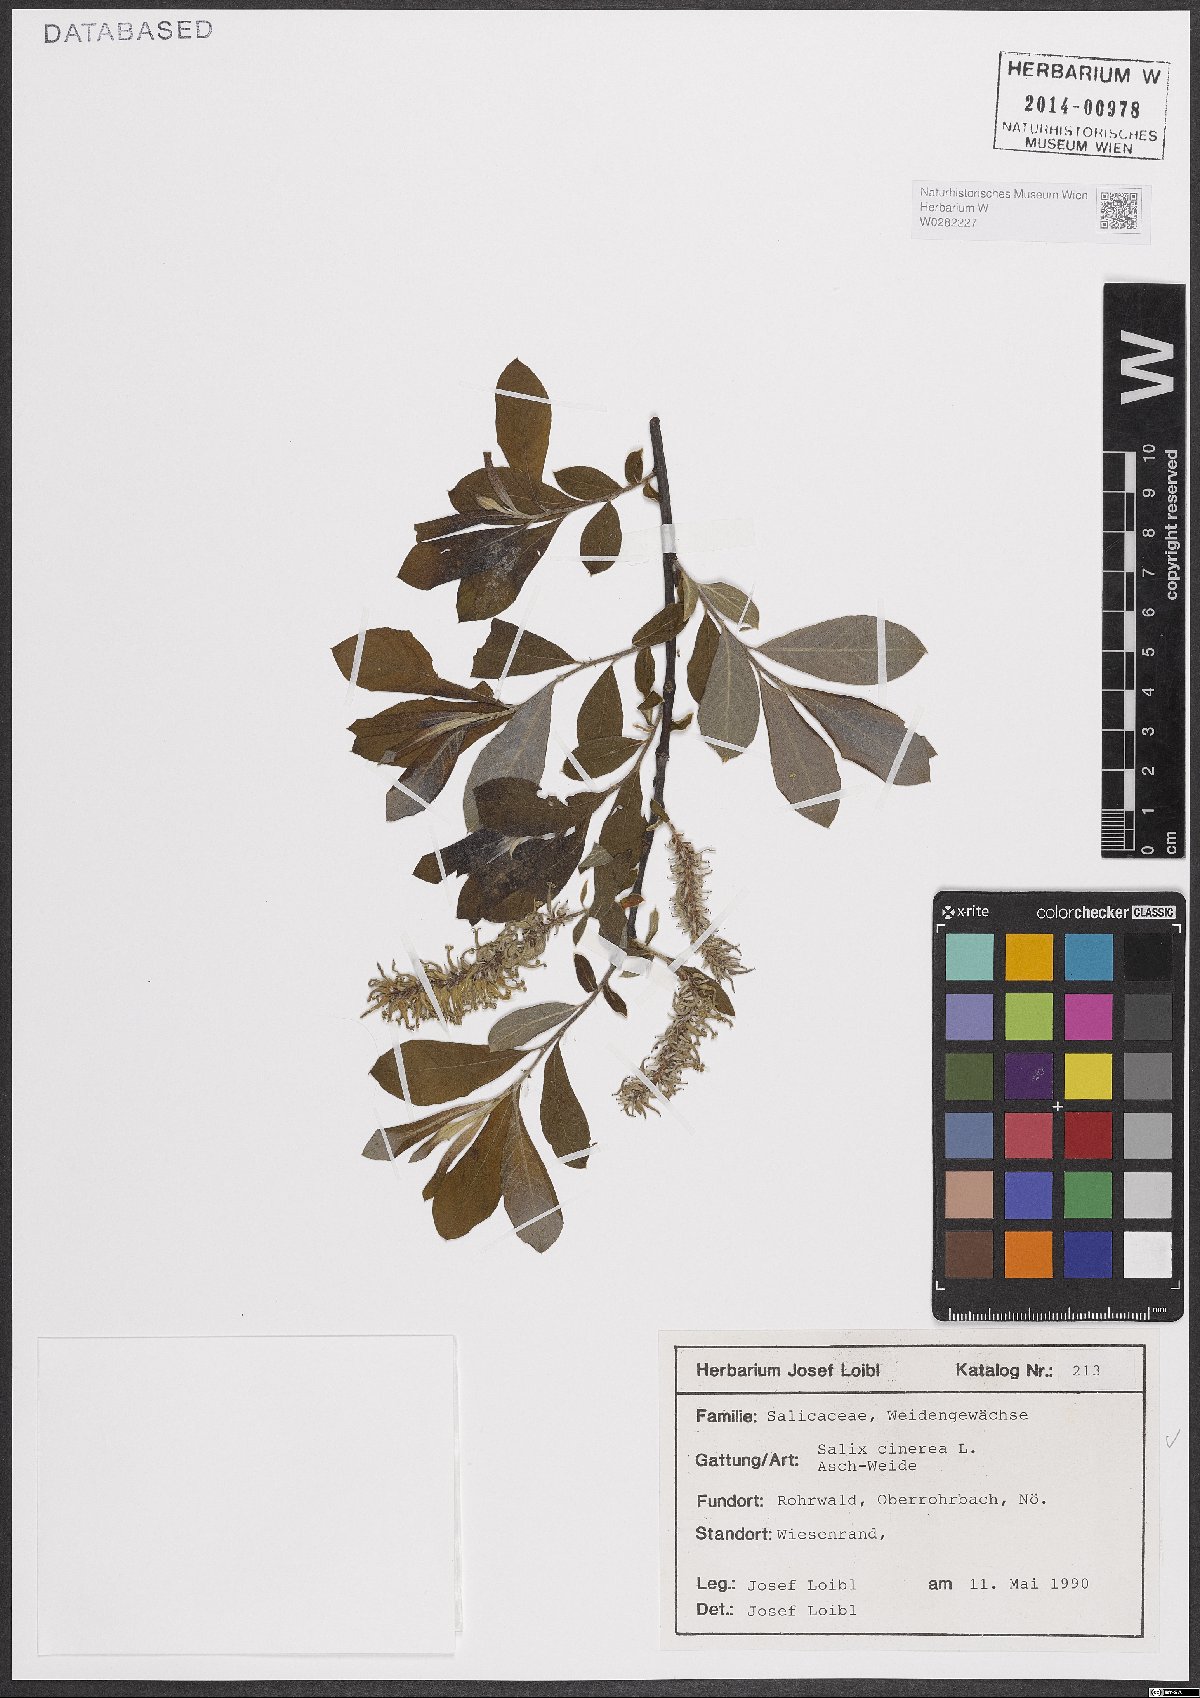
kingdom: Plantae
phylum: Tracheophyta
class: Magnoliopsida
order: Malpighiales
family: Salicaceae
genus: Salix
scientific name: Salix cinerea
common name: Common sallow
